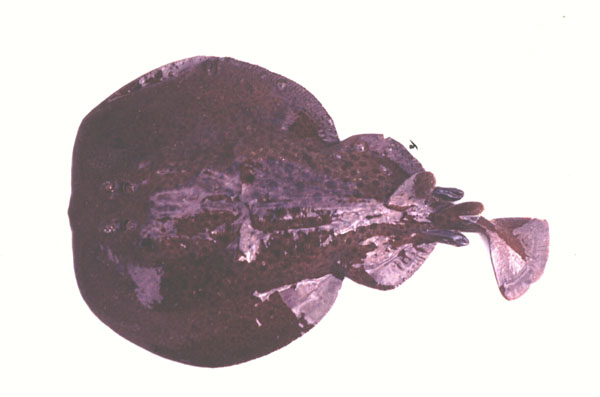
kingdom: Animalia
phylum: Chordata
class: Elasmobranchii
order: Torpediniformes
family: Torpedinidae
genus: Torpedo
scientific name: Torpedo fuscomaculata
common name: Blackspotted electric ray
